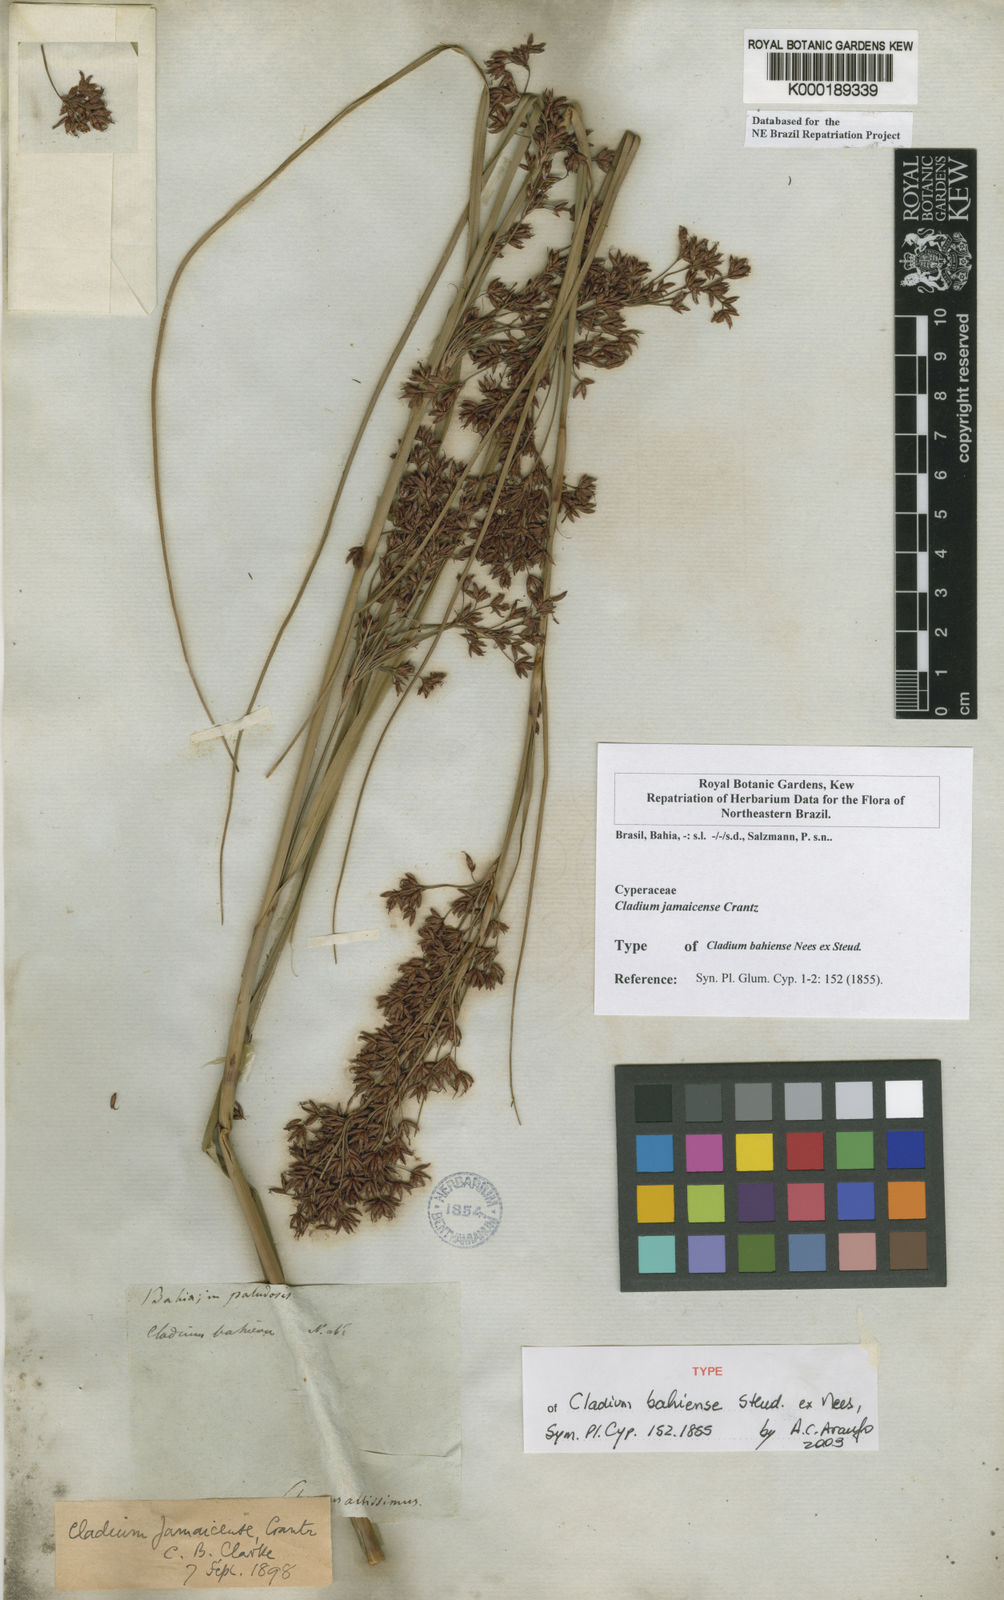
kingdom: Plantae
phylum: Tracheophyta
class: Liliopsida
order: Poales
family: Cyperaceae
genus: Cladium
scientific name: Cladium mariscus
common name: Great fen-sedge
